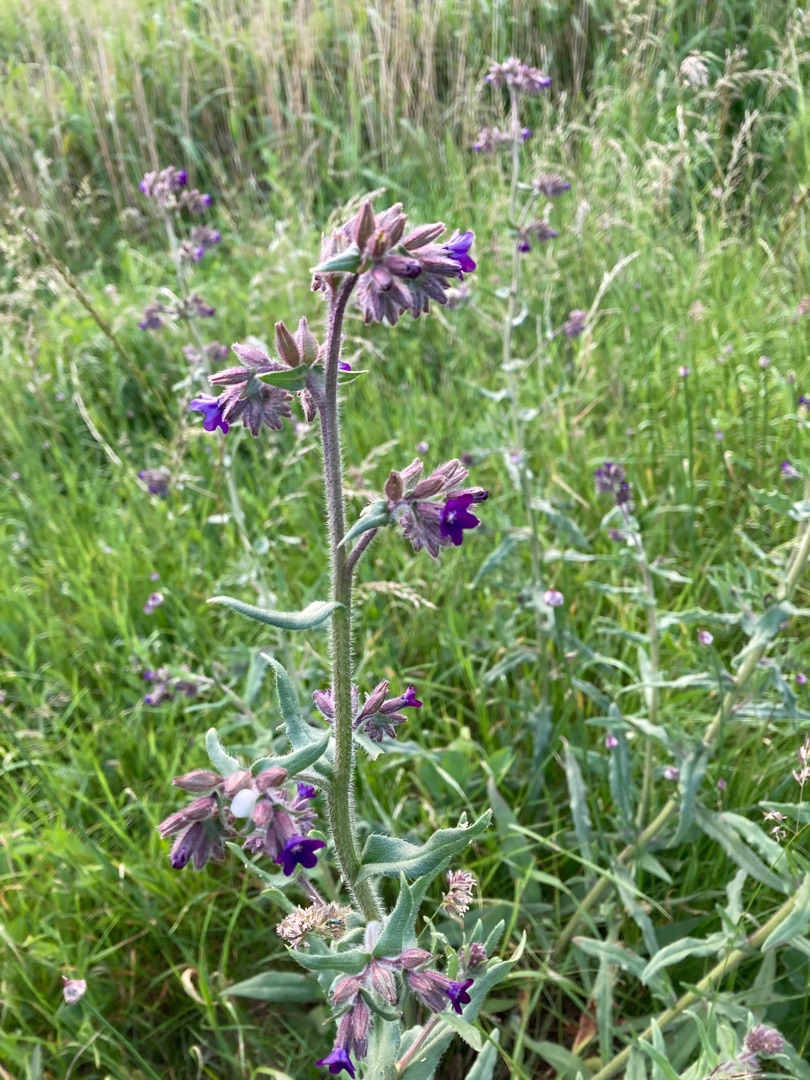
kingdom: Plantae
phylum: Tracheophyta
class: Magnoliopsida
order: Boraginales
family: Boraginaceae
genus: Anchusa
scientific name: Anchusa officinalis
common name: Læge-oksetunge
